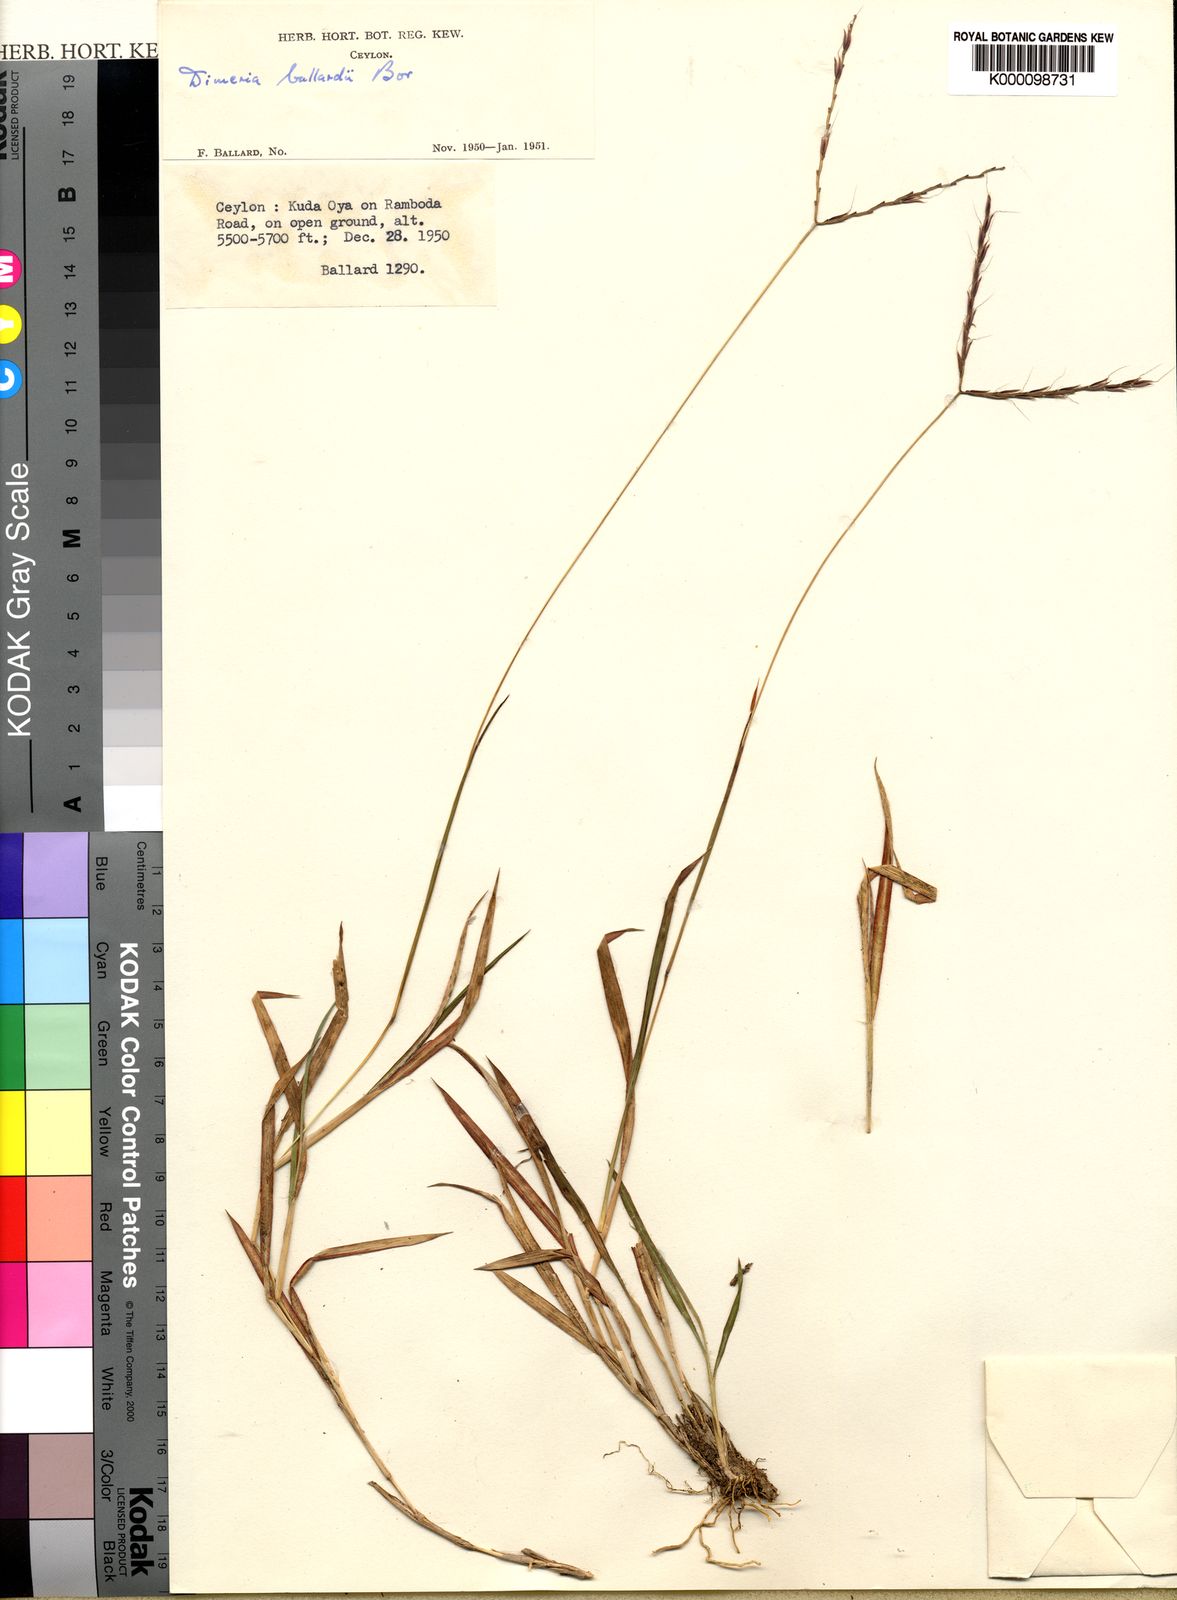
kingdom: Plantae
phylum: Tracheophyta
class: Liliopsida
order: Poales
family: Poaceae
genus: Dimeria
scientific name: Dimeria ballardii
